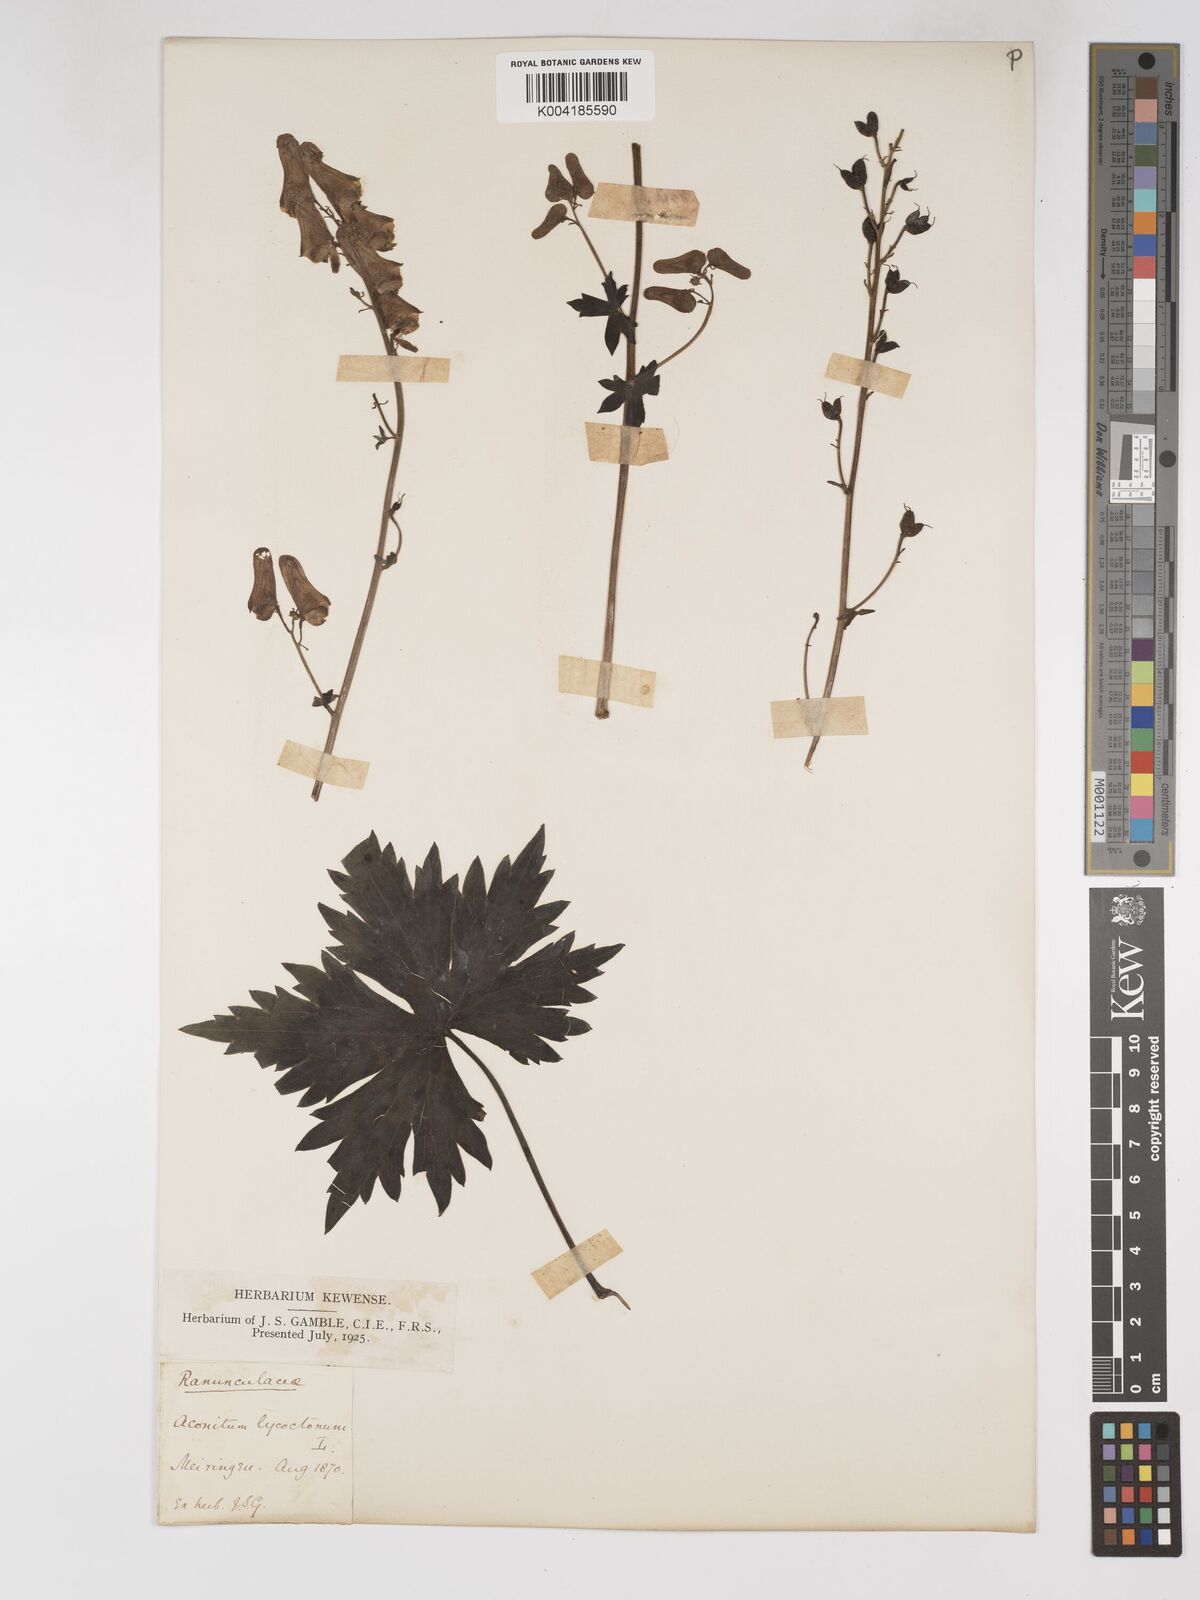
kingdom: Plantae
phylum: Tracheophyta
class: Magnoliopsida
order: Ranunculales
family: Ranunculaceae
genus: Aconitum
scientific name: Aconitum lycoctonum
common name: Wolf's-bane
